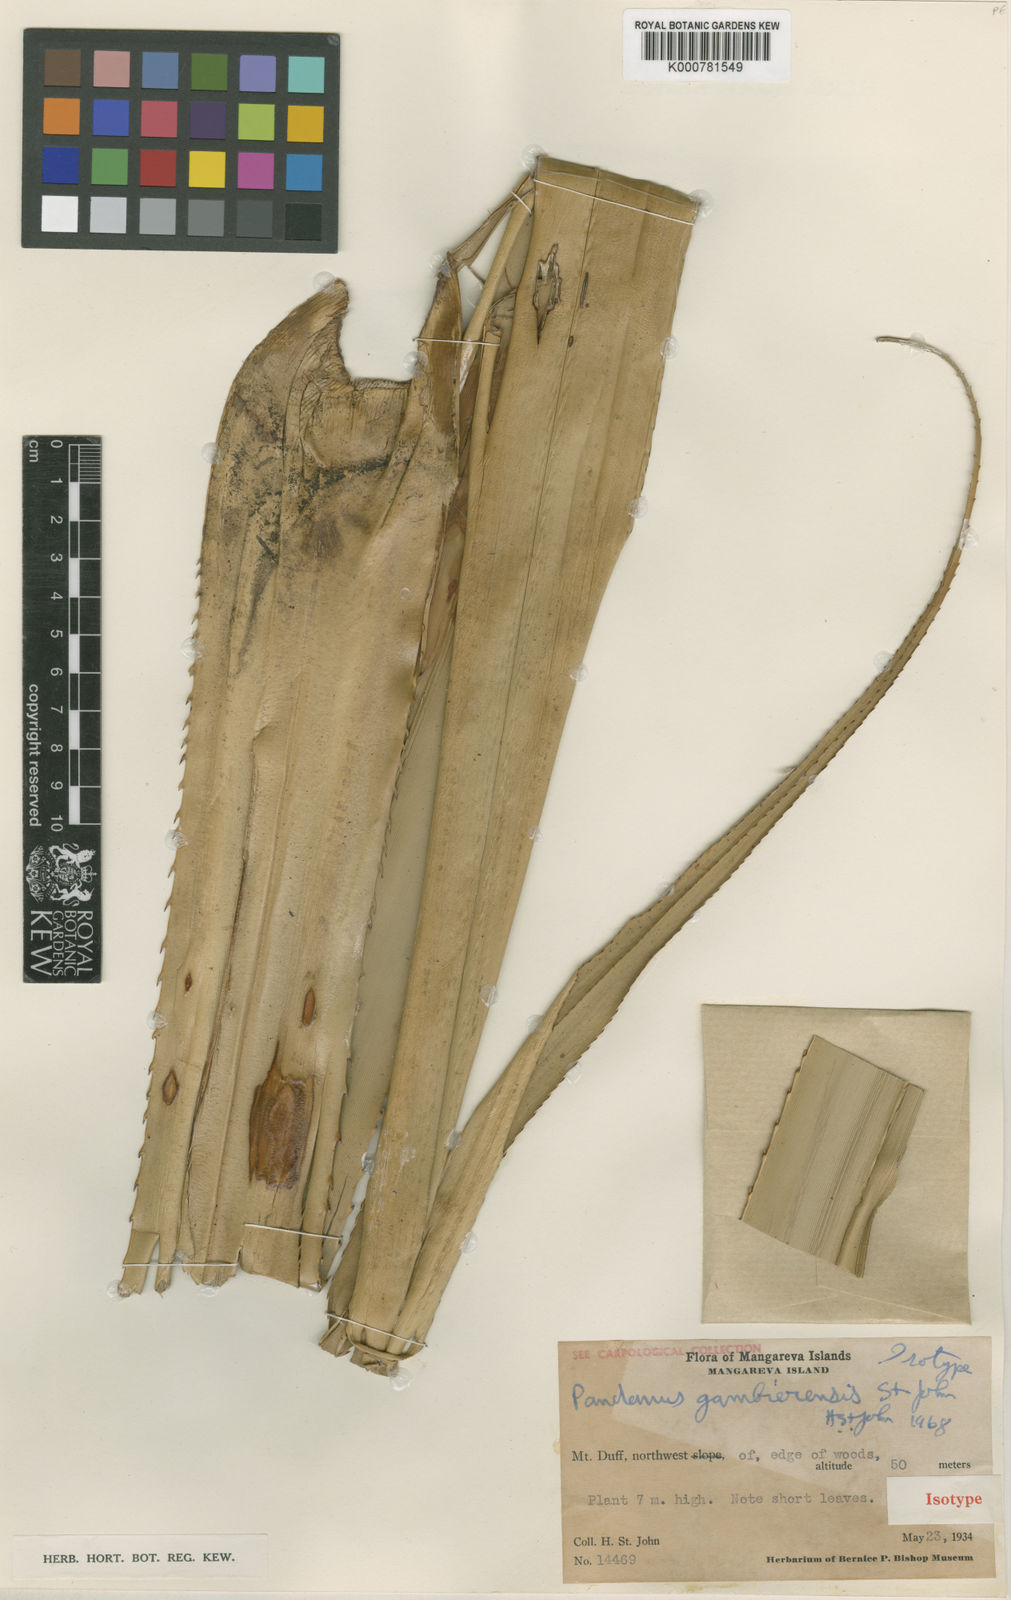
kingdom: Plantae
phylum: Tracheophyta
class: Liliopsida
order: Pandanales
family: Pandanaceae
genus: Pandanus
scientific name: Pandanus
